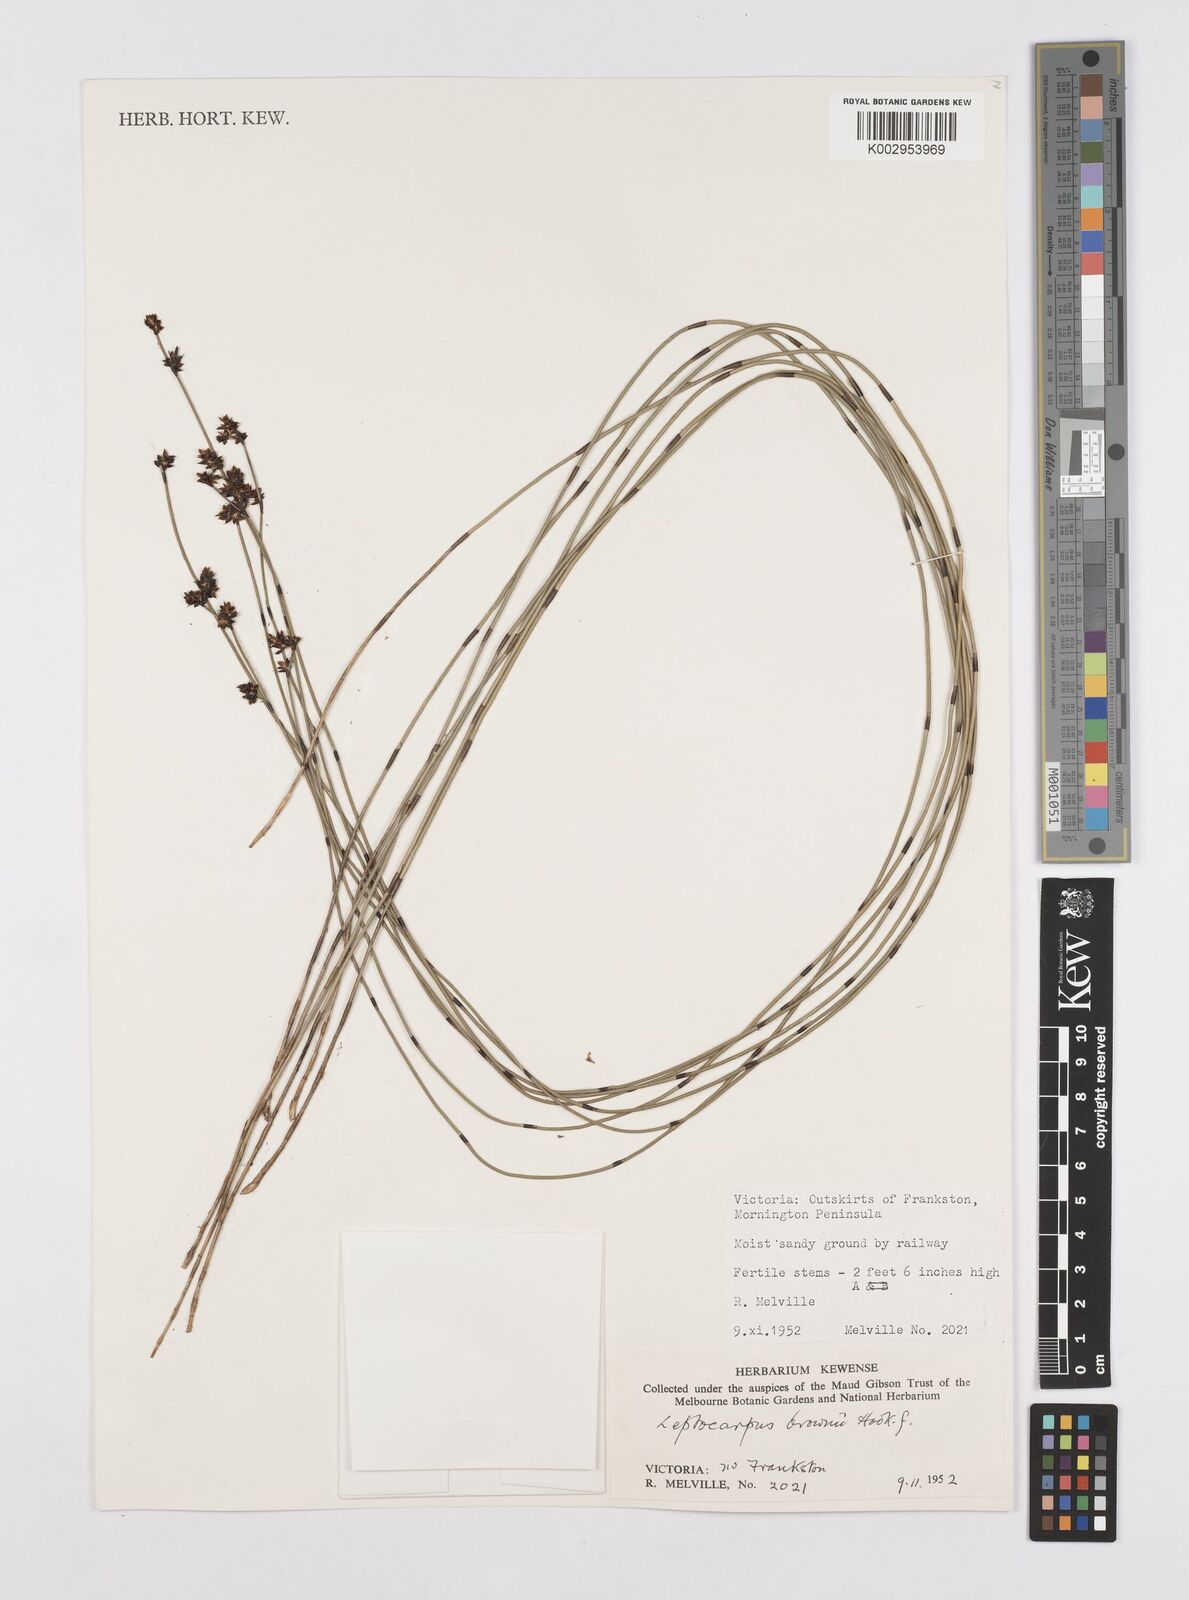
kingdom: Plantae
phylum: Tracheophyta
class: Liliopsida
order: Poales
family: Restionaceae
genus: Apodasmia
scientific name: Apodasmia brownii
